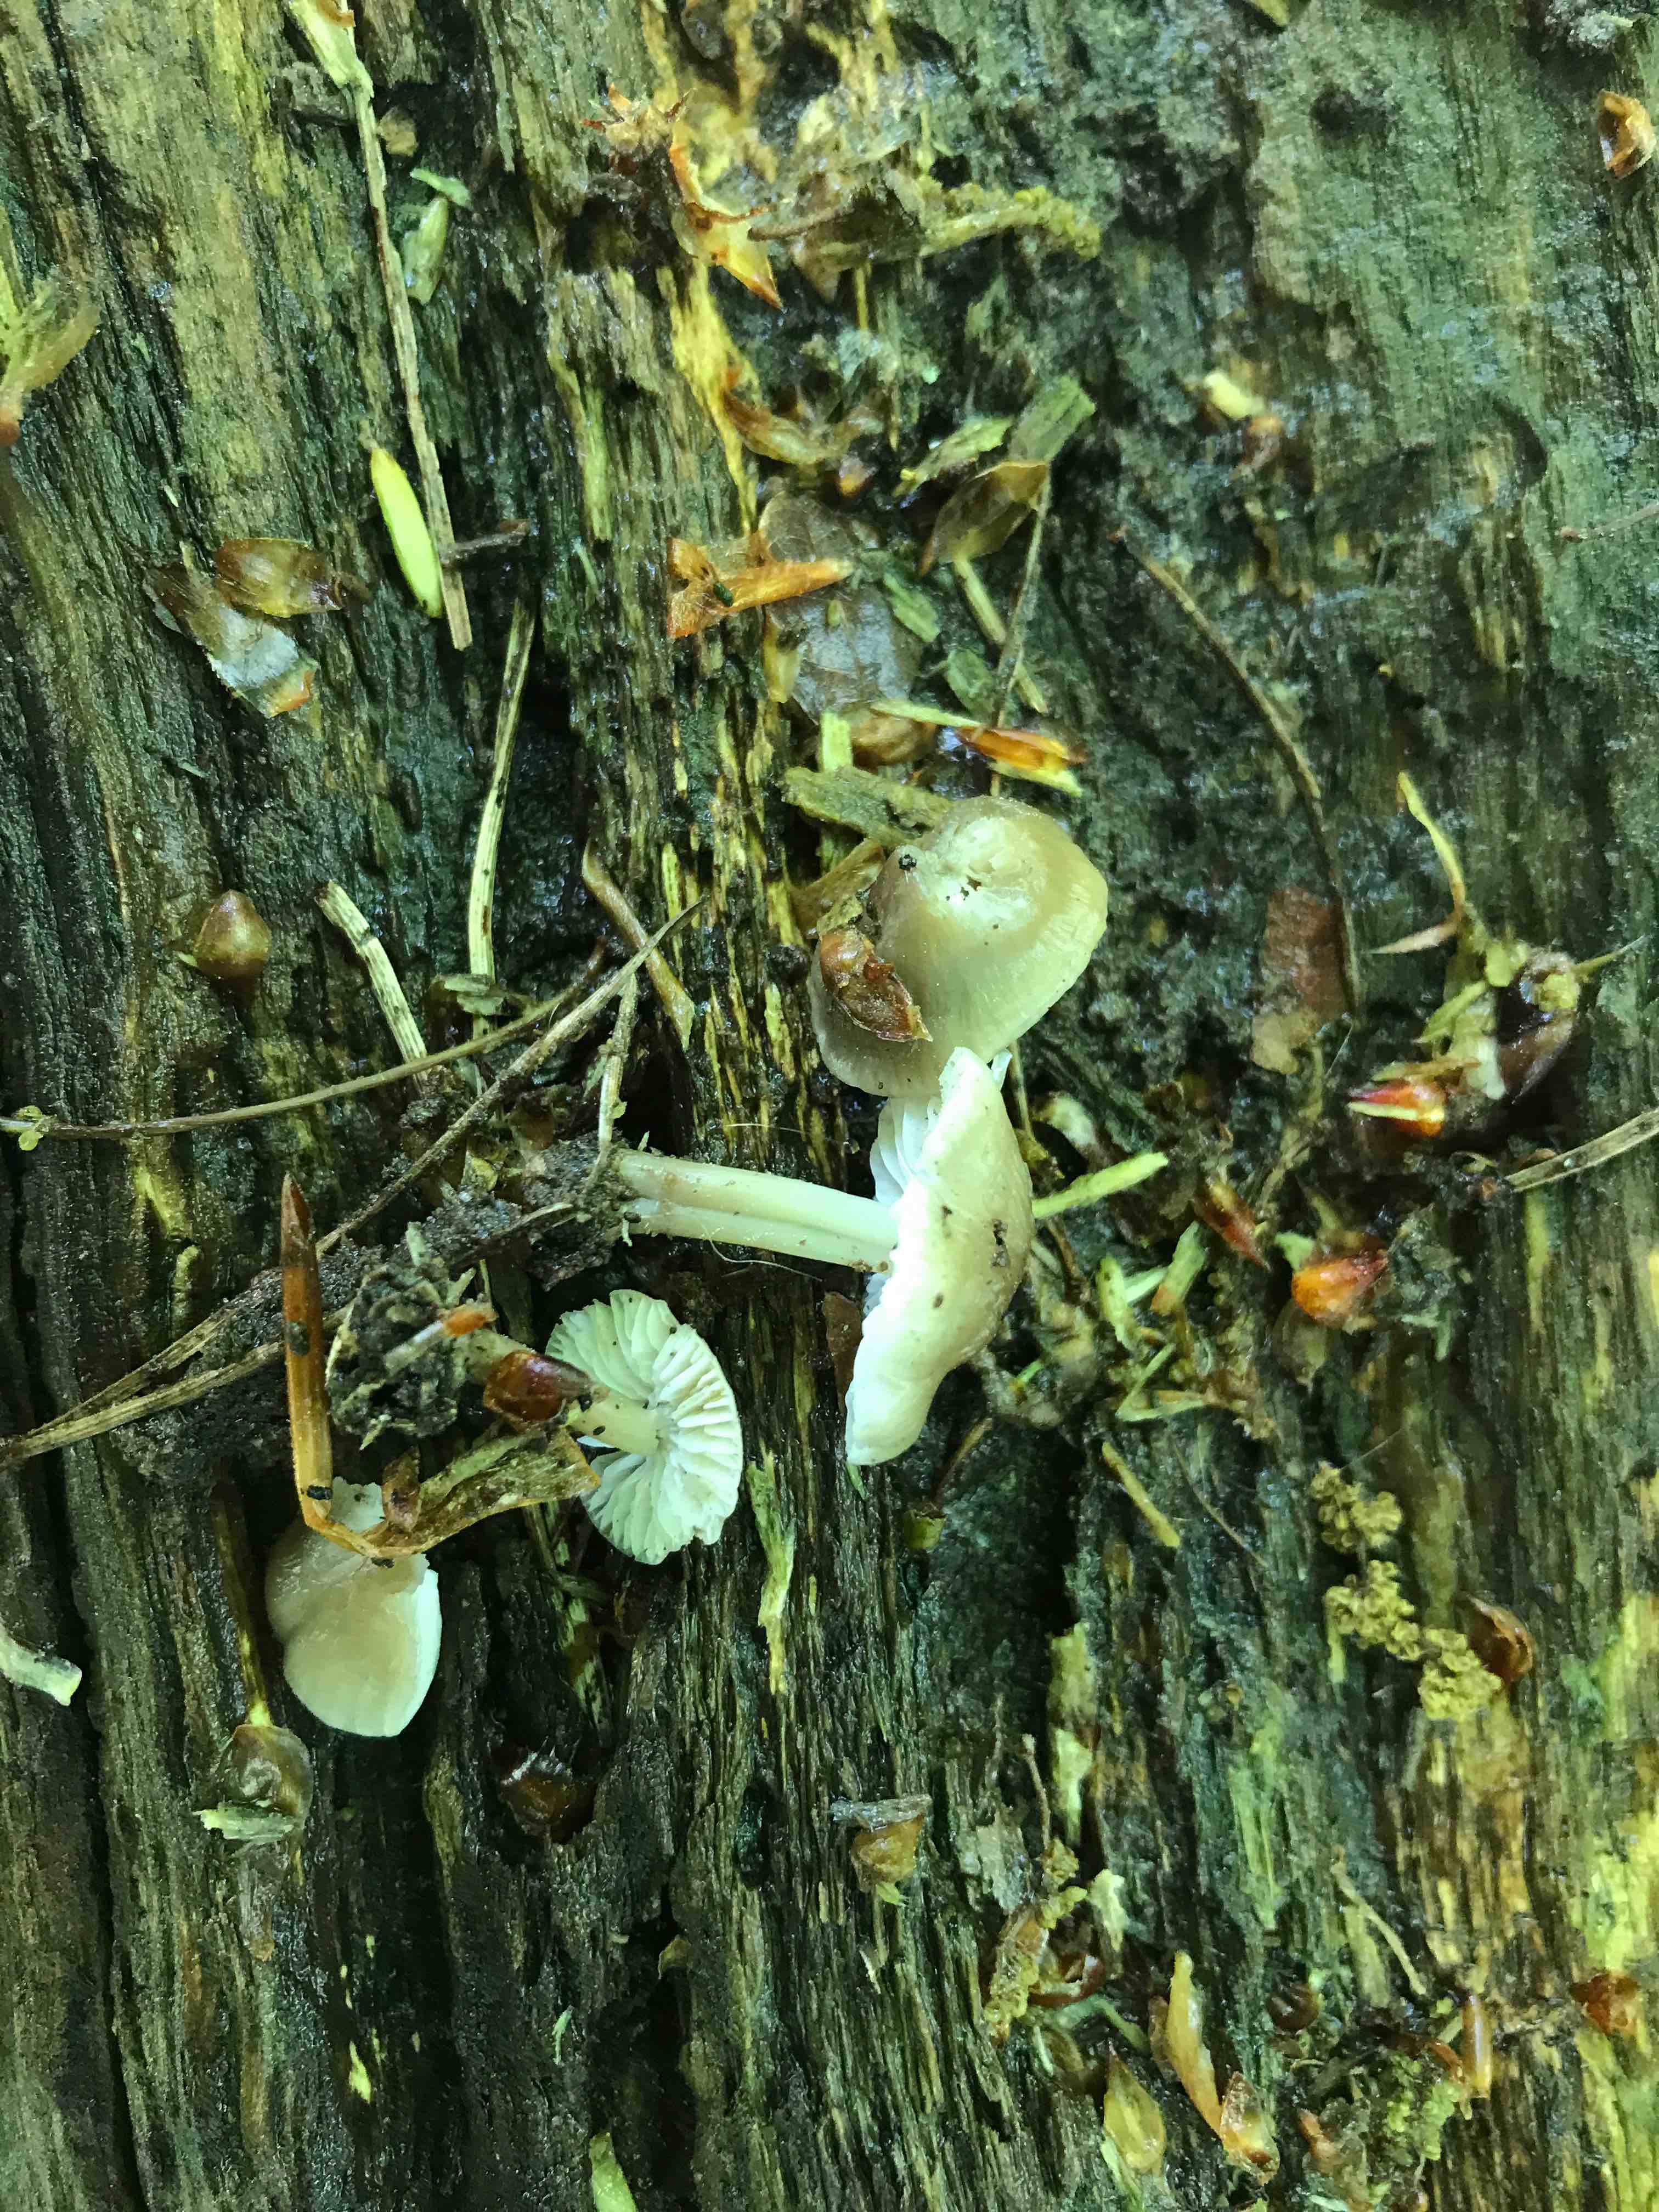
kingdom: Fungi
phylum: Basidiomycota
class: Agaricomycetes
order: Agaricales
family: Mycenaceae
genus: Mycena
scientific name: Mycena galericulata
